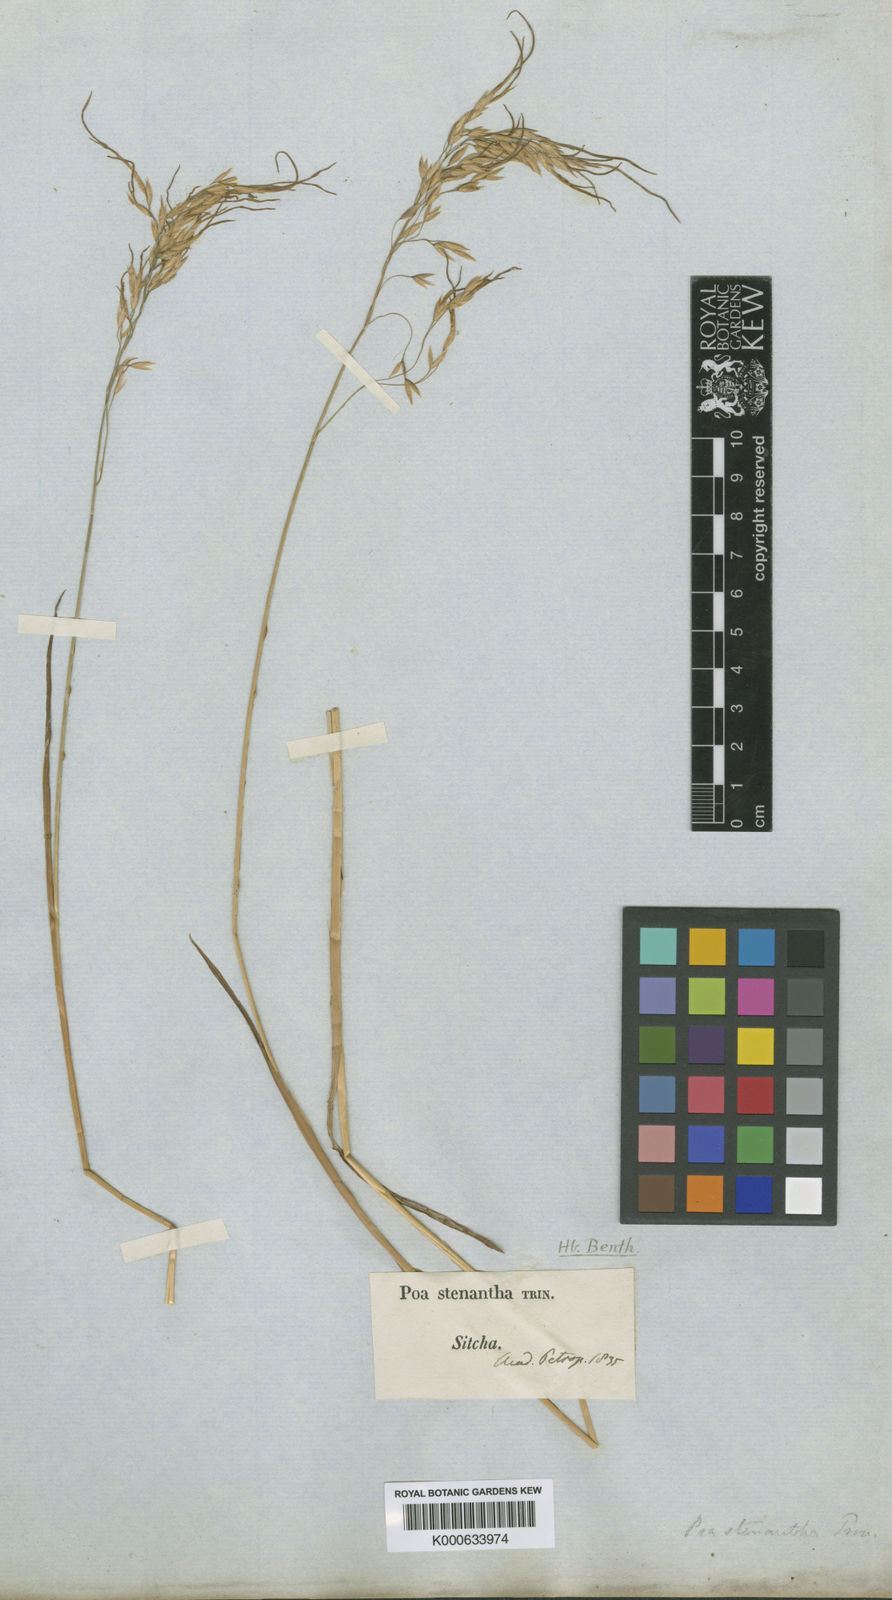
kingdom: Plantae
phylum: Tracheophyta
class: Liliopsida
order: Poales
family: Poaceae
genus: Poa
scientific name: Poa stenantha
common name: Narrow-flowered bluegrass
